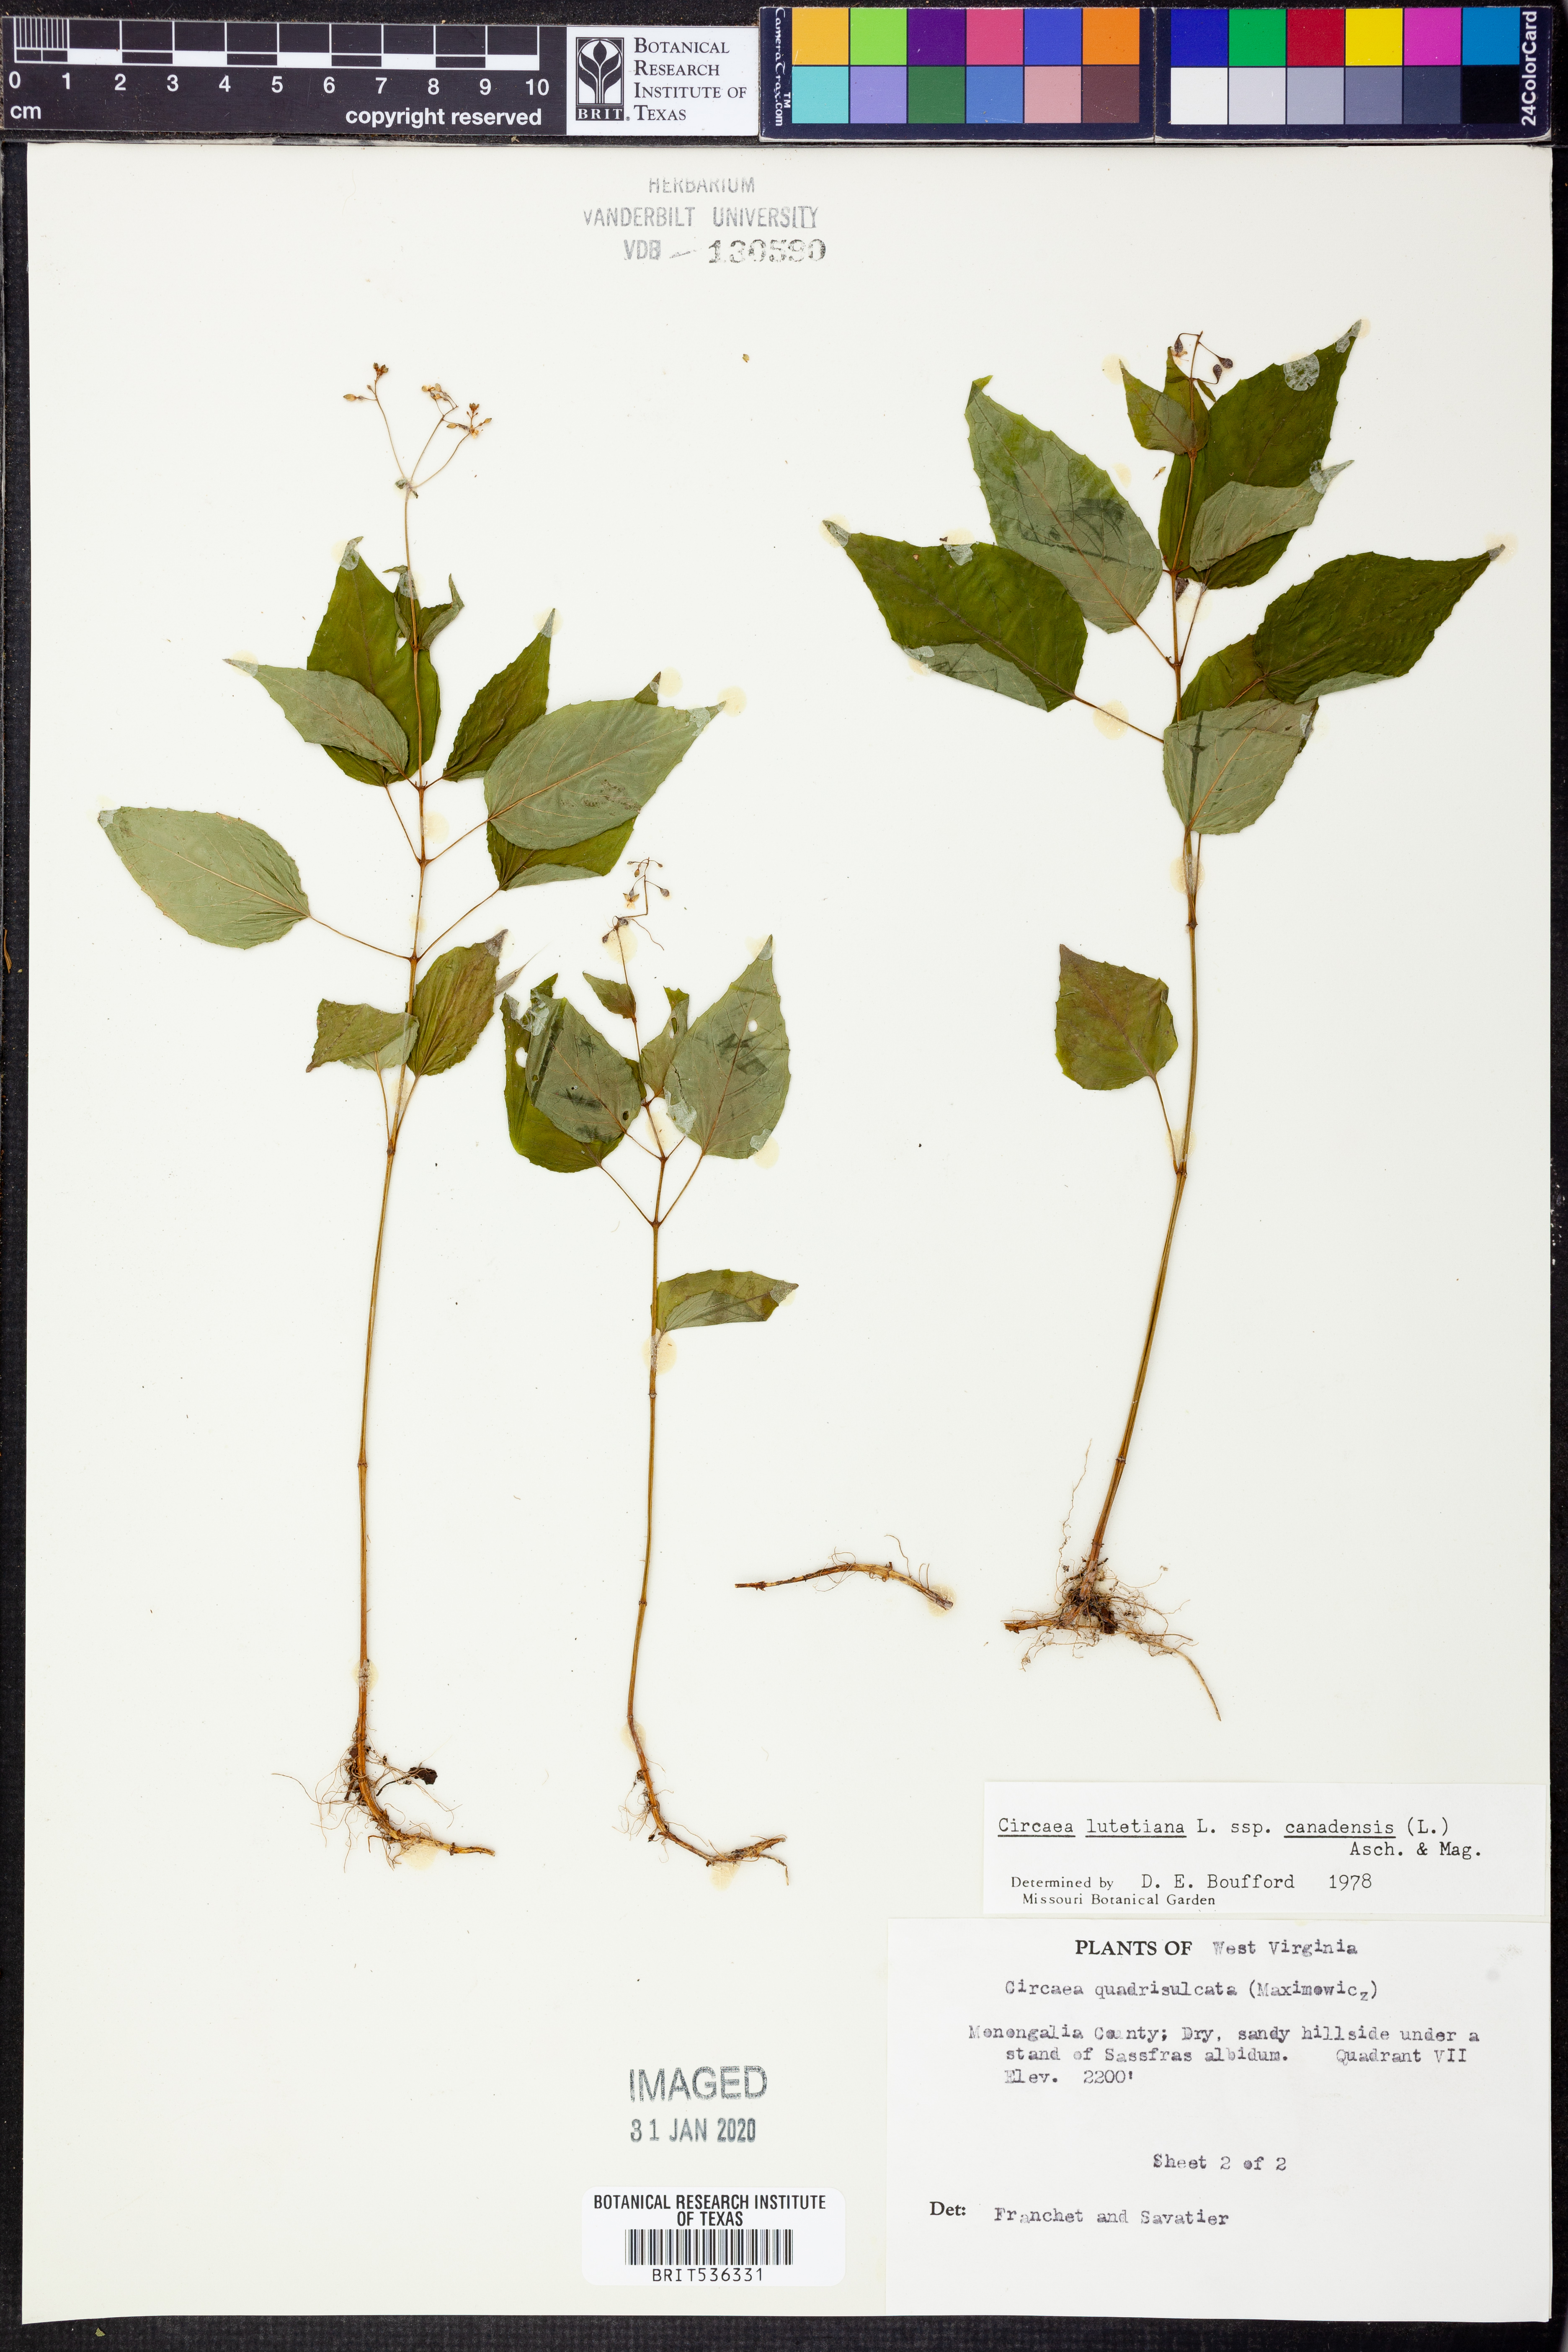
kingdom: Plantae
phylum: Tracheophyta
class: Magnoliopsida
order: Myrtales
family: Onagraceae
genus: Circaea
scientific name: Circaea canadensis
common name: Broad-leaved enchanter's nightshade
